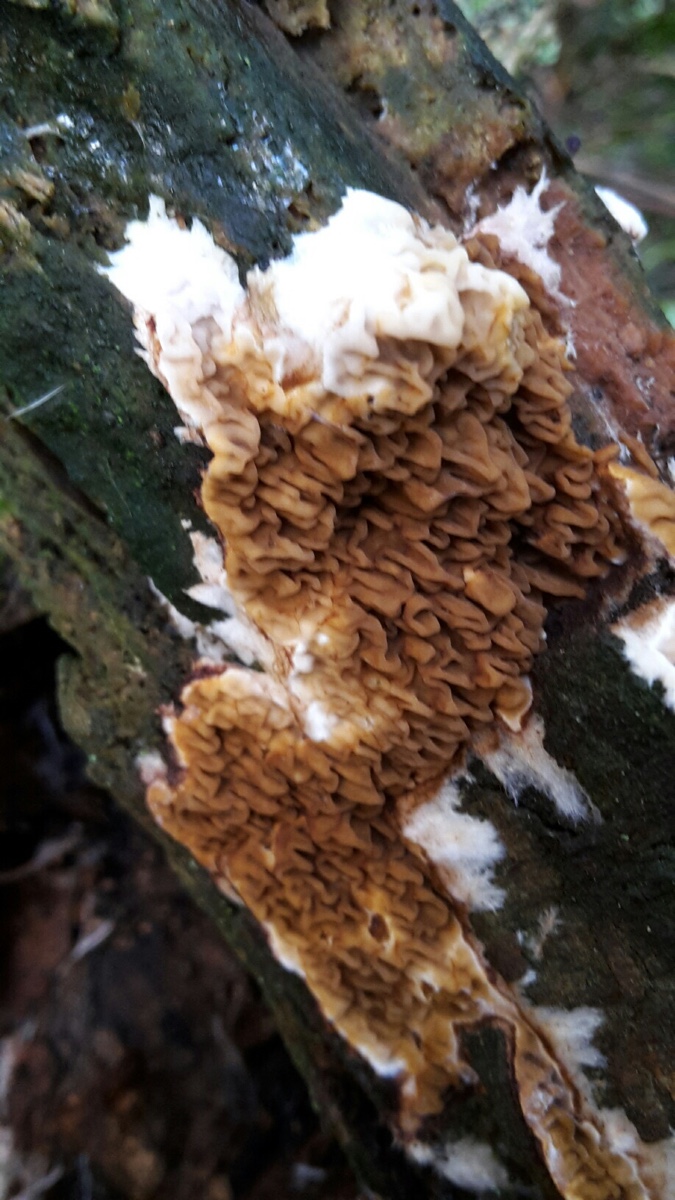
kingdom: Fungi
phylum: Basidiomycota
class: Agaricomycetes
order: Boletales
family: Serpulaceae
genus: Serpula
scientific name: Serpula himantioides
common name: tyndkødet hussvamp
